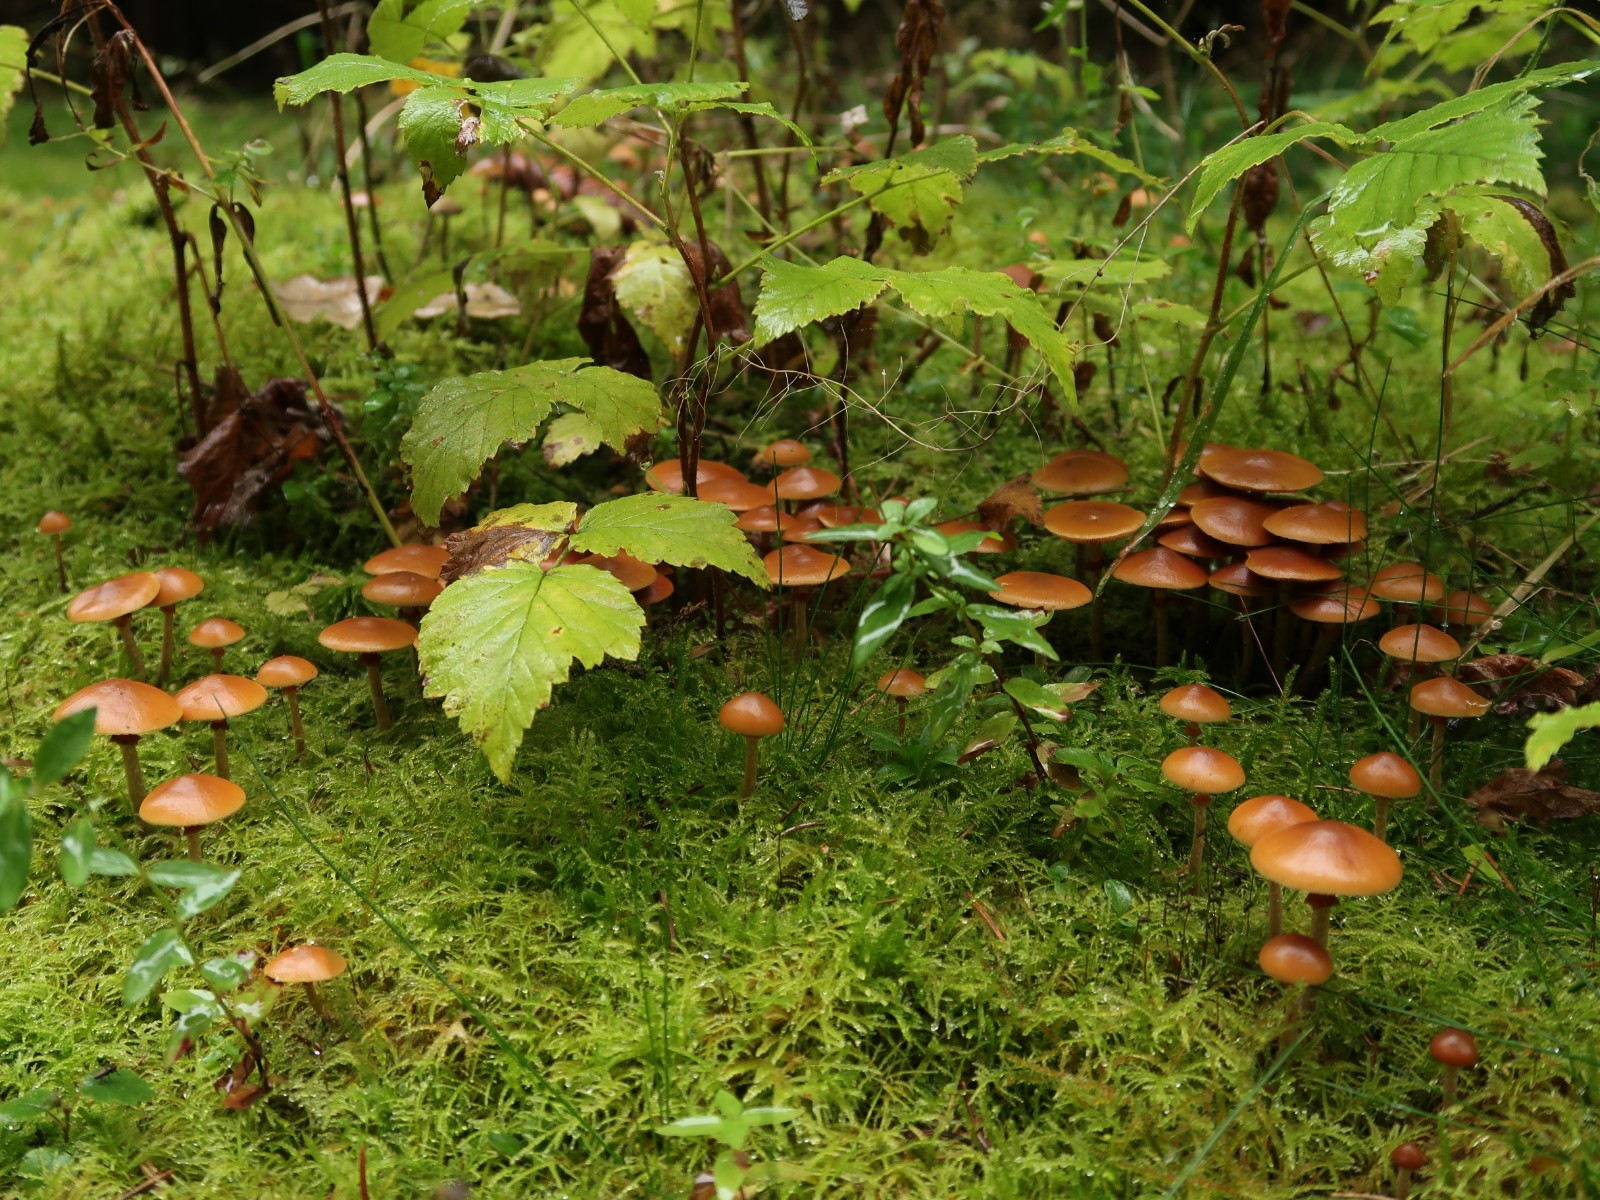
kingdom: Fungi
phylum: Basidiomycota
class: Agaricomycetes
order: Agaricales
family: Hymenogastraceae
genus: Galerina
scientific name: Galerina marginata
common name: randbæltet hjelmhat
